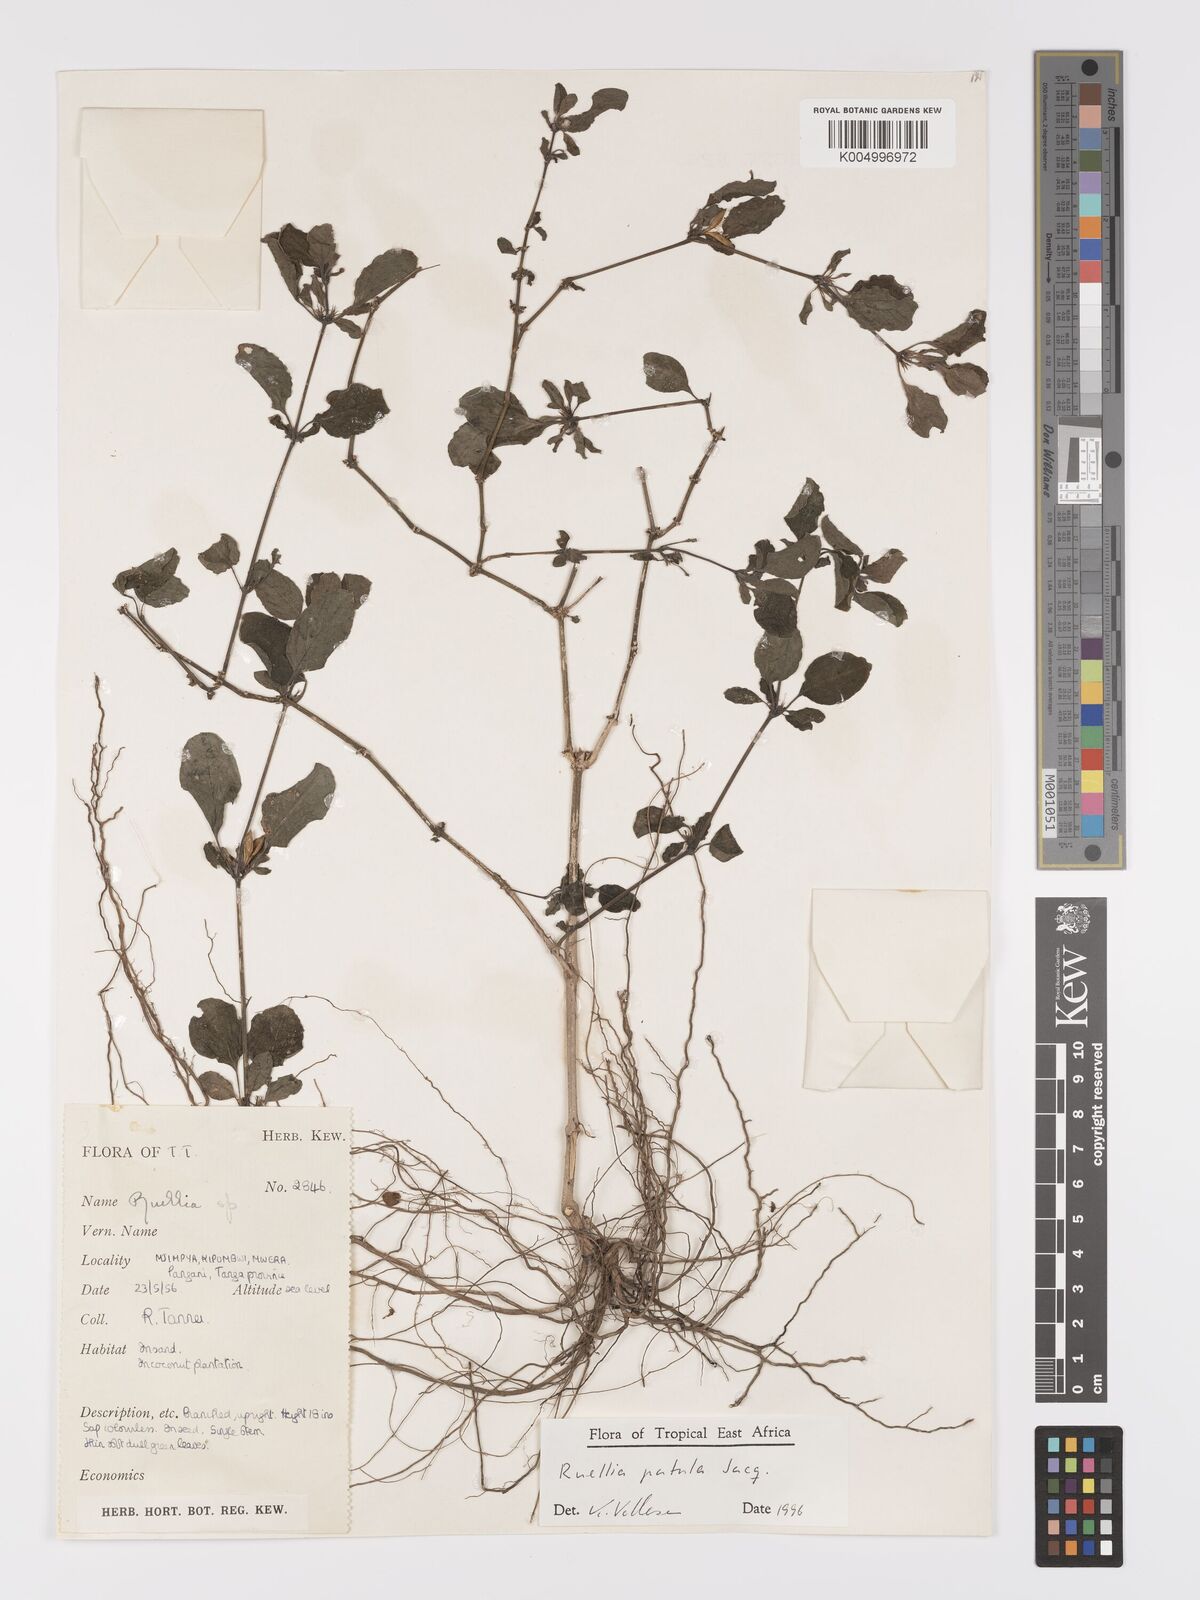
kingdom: Plantae
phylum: Tracheophyta
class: Magnoliopsida
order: Lamiales
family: Acanthaceae
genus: Ruellia
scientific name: Ruellia patula
